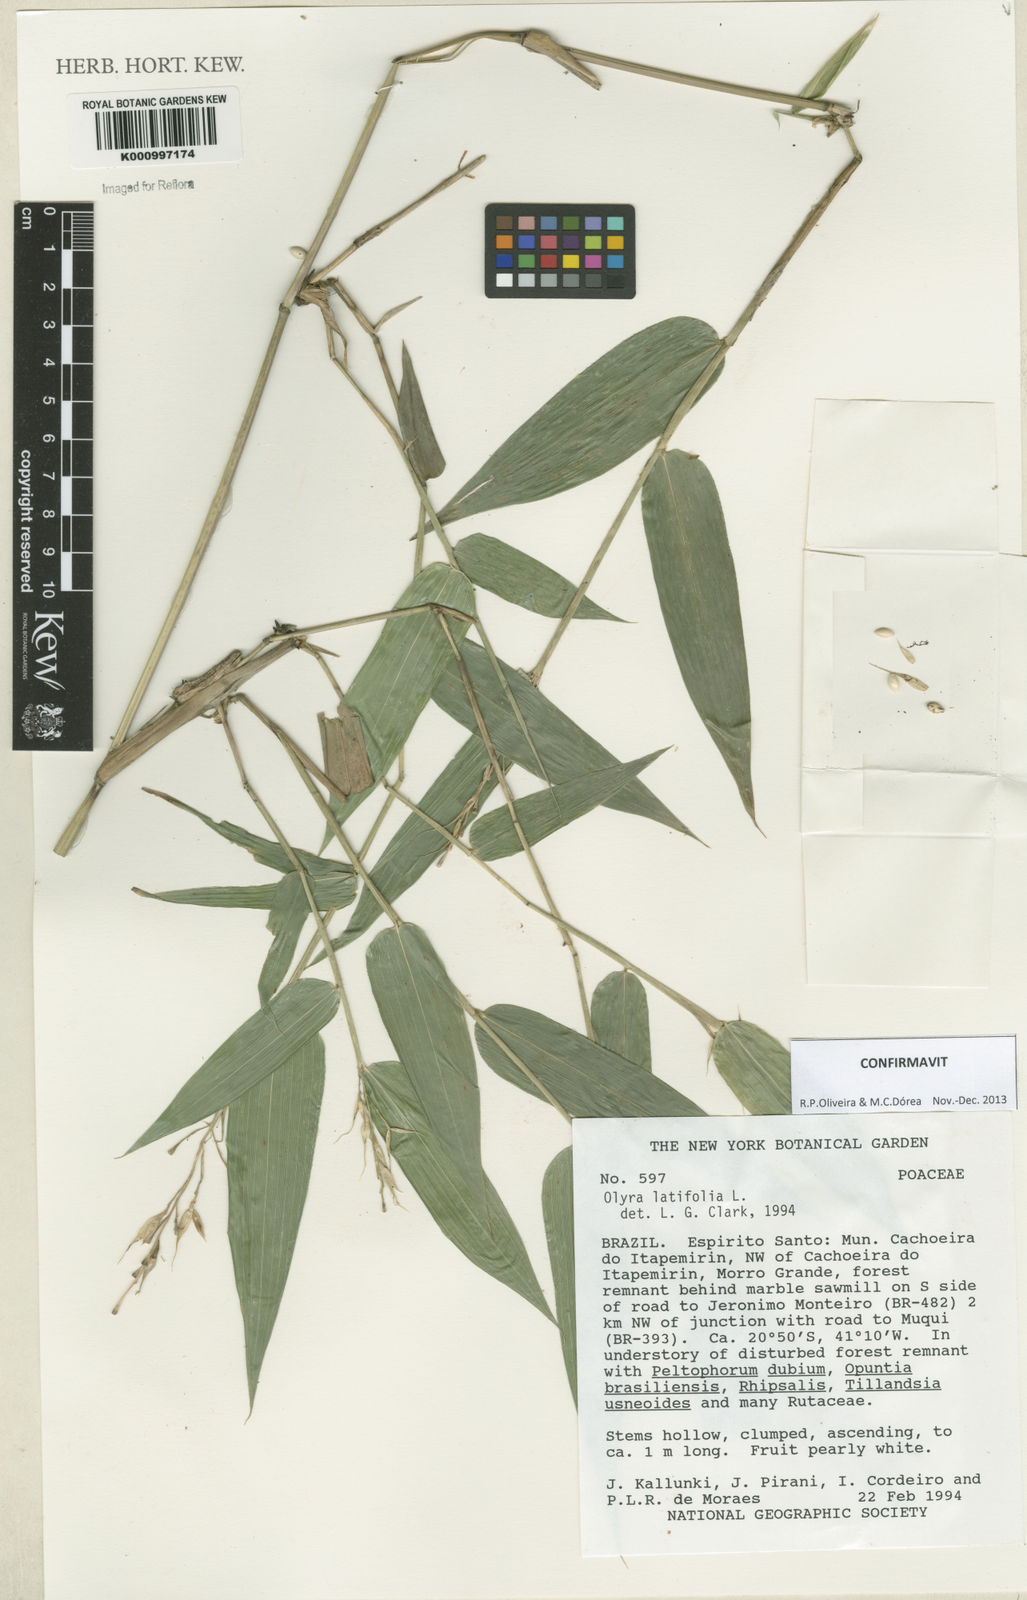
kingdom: Plantae
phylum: Tracheophyta
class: Liliopsida
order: Poales
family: Poaceae
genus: Olyra
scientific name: Olyra latifolia
